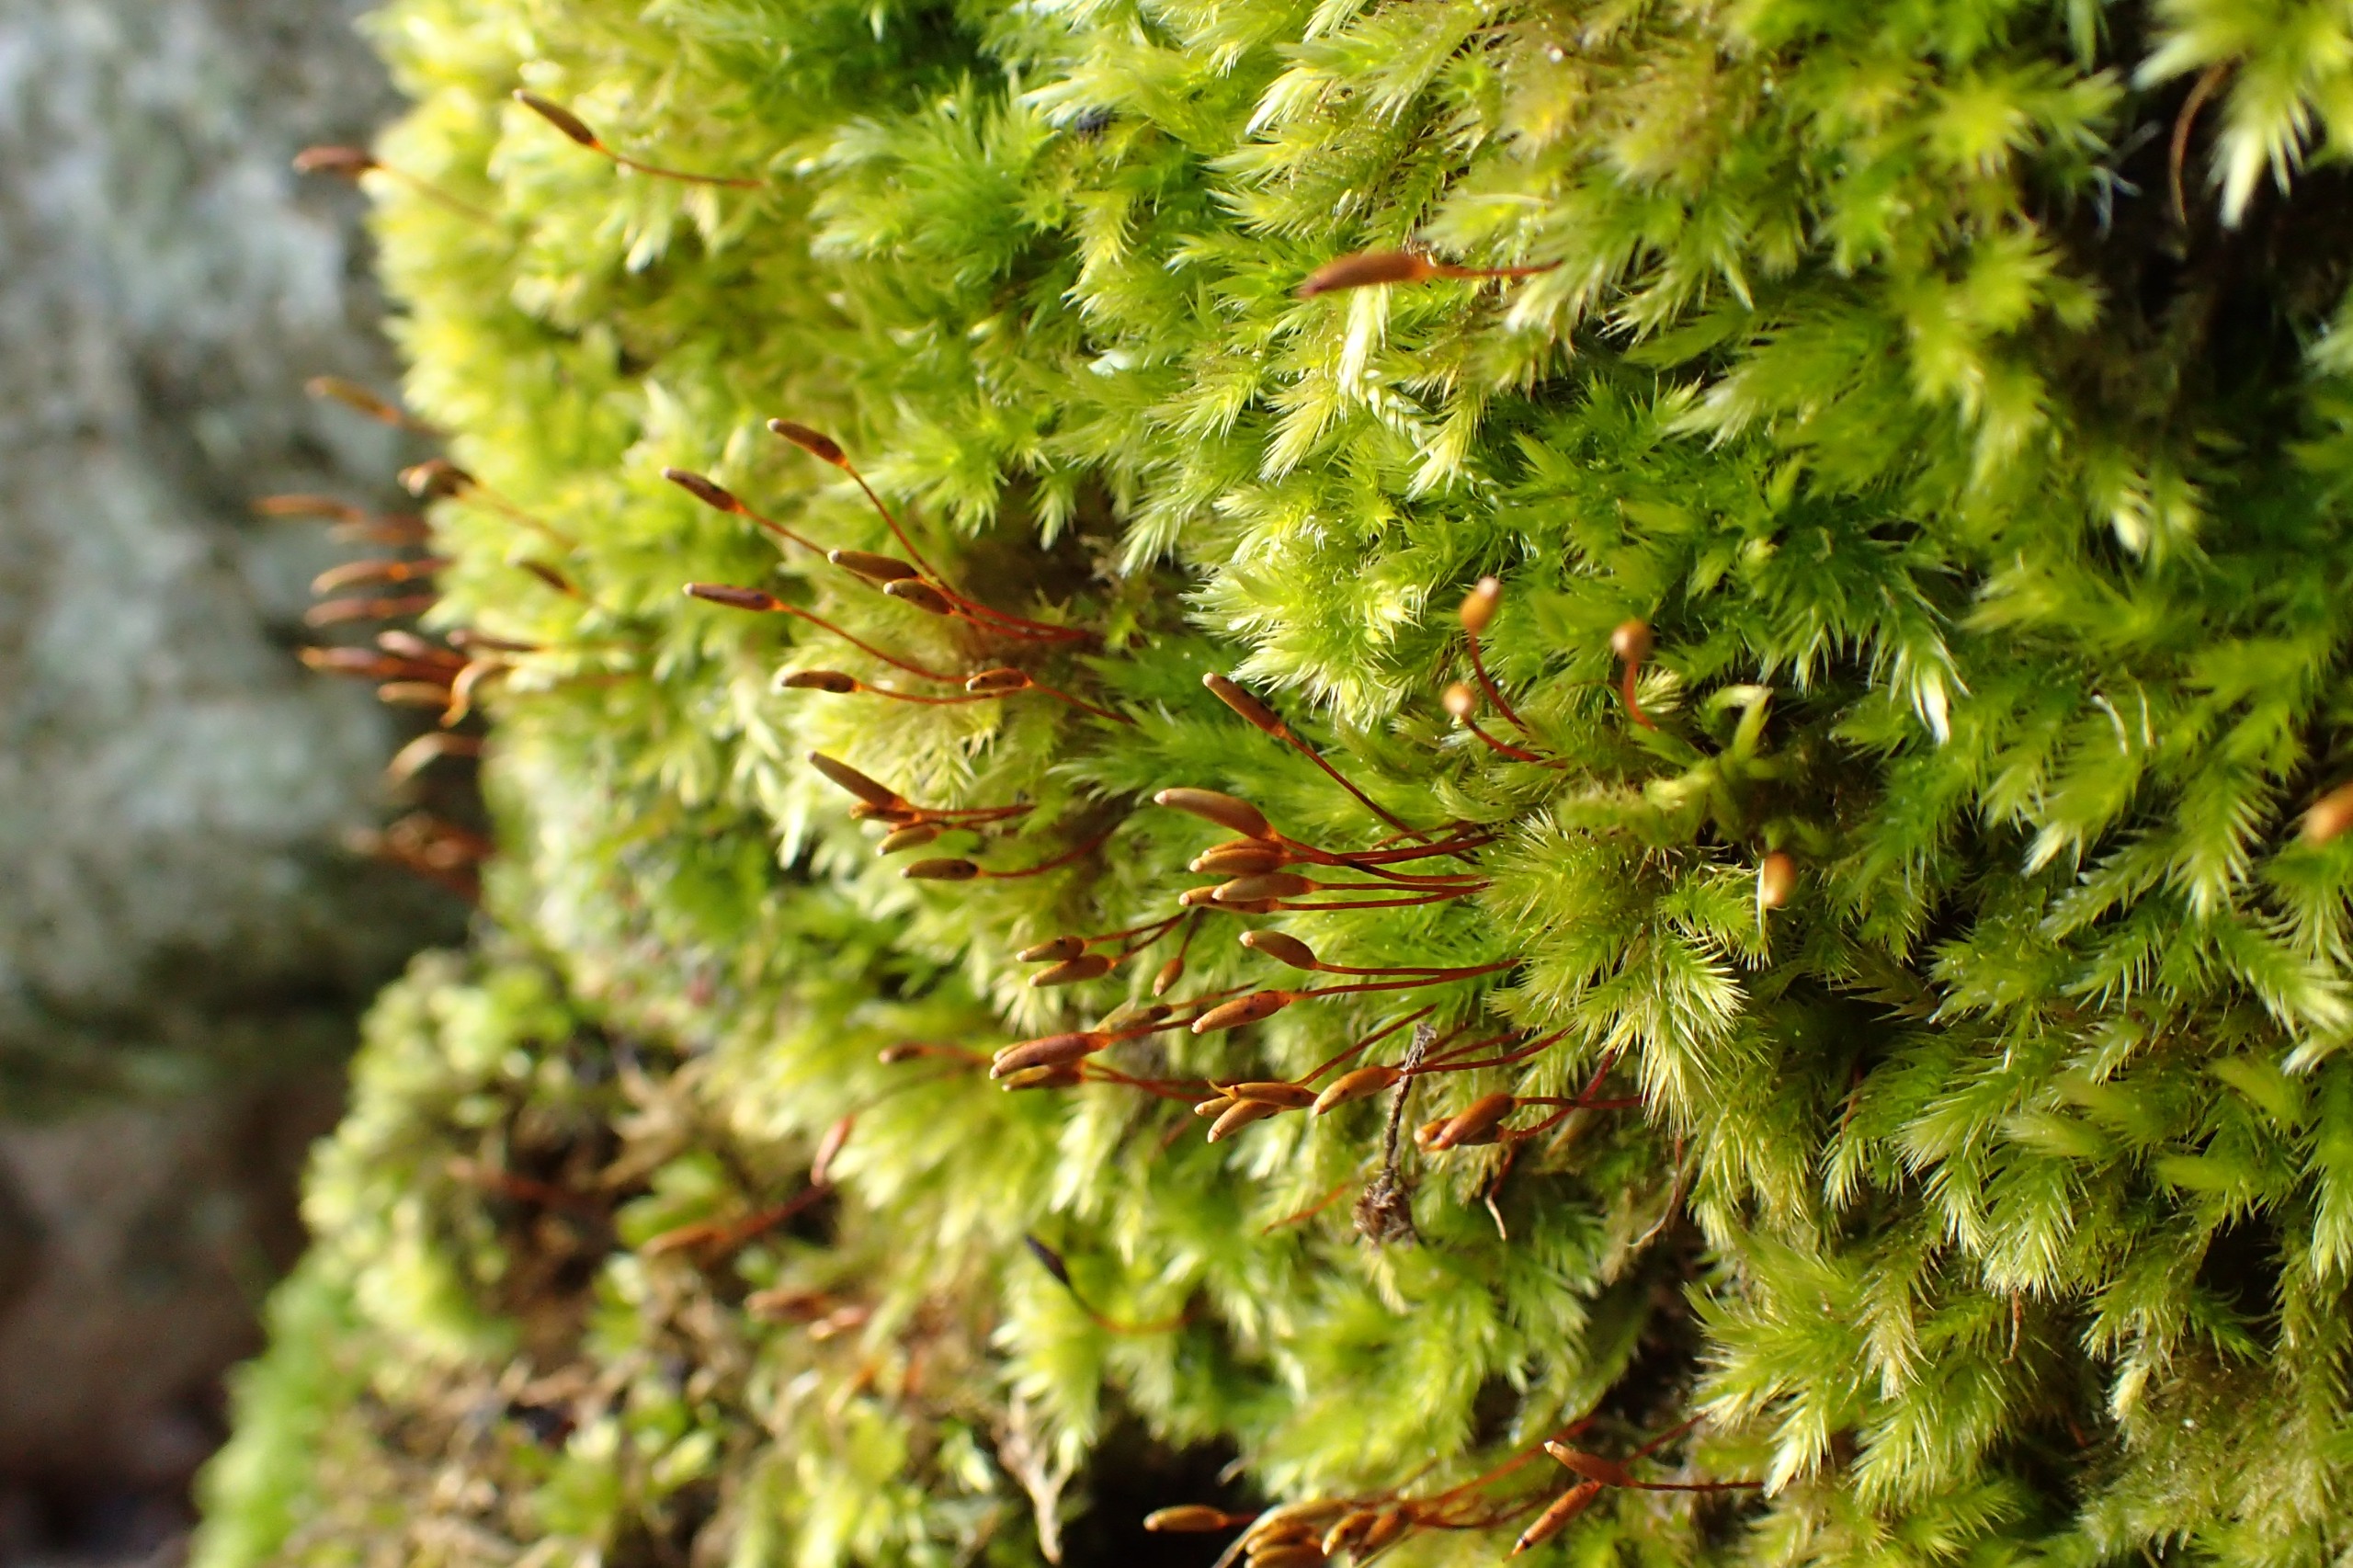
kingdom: Plantae
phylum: Bryophyta
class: Bryopsida
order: Hypnales
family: Brachytheciaceae
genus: Homalothecium
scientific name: Homalothecium sericeum
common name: Krybende silkemos
